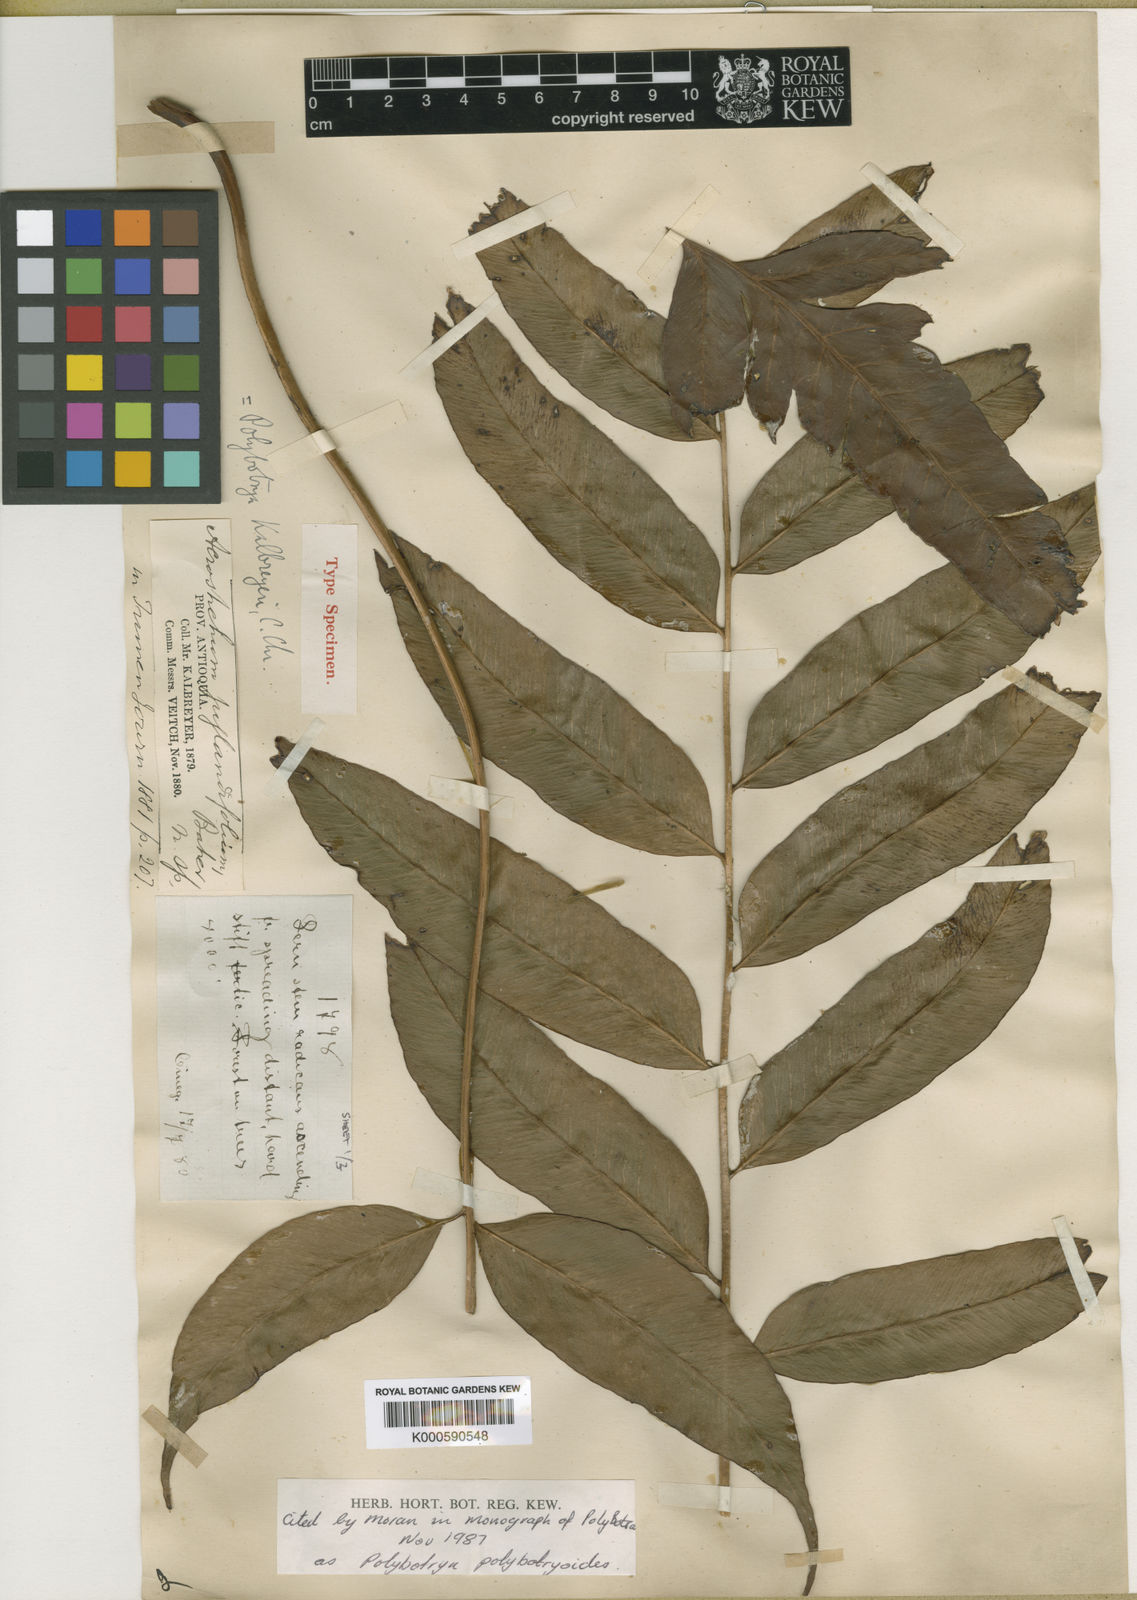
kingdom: Plantae
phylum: Tracheophyta
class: Polypodiopsida
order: Polypodiales
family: Dryopteridaceae
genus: Polybotrya
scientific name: Polybotrya polybotryoides
